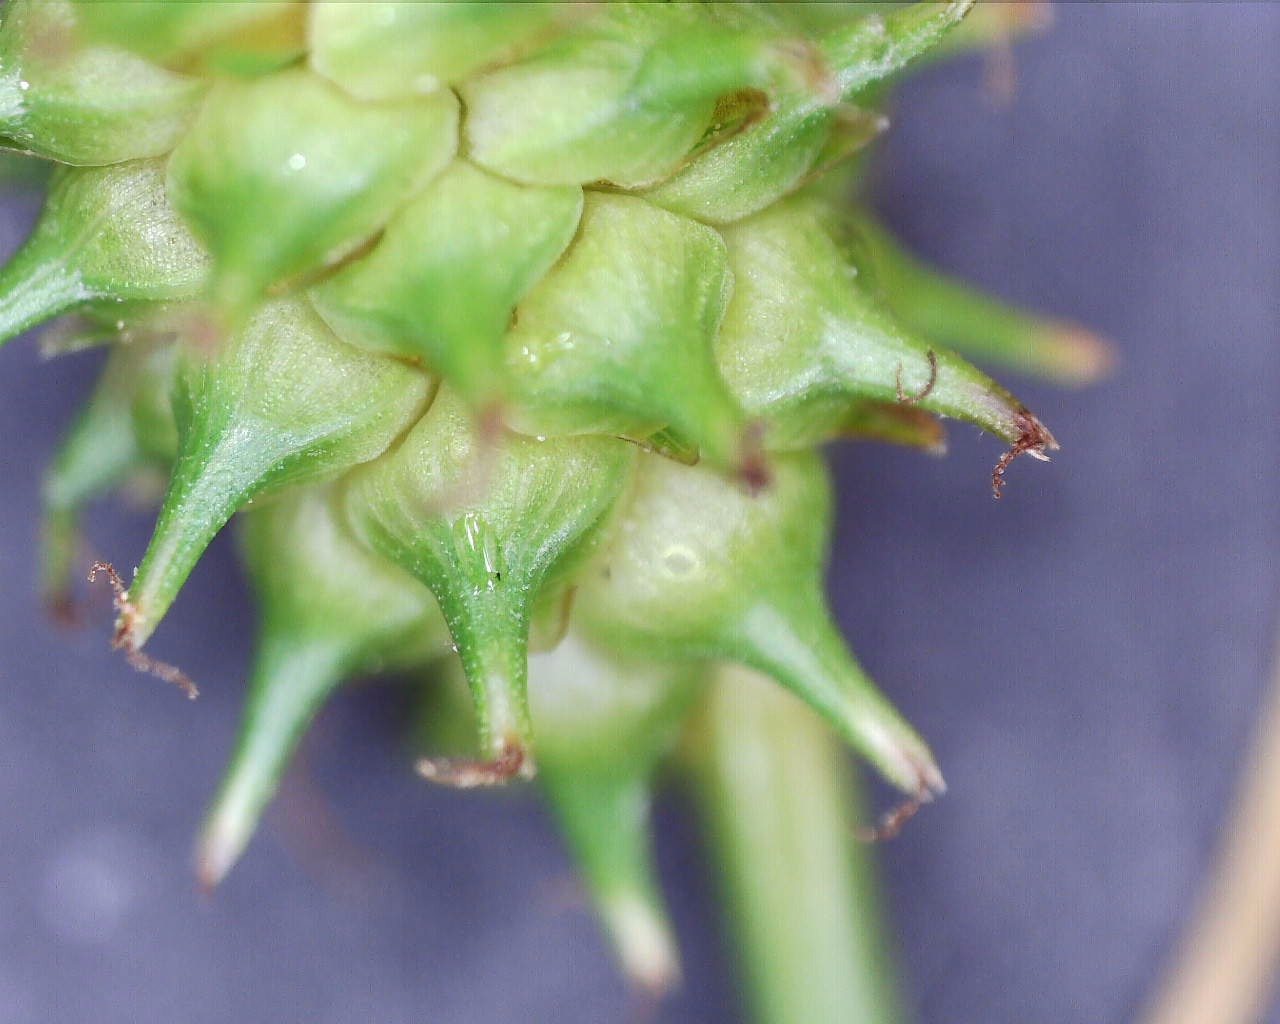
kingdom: Plantae
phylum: Tracheophyta
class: Liliopsida
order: Poales
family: Cyperaceae
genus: Carex
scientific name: Carex lepidocarpa
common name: Krognæb-star
